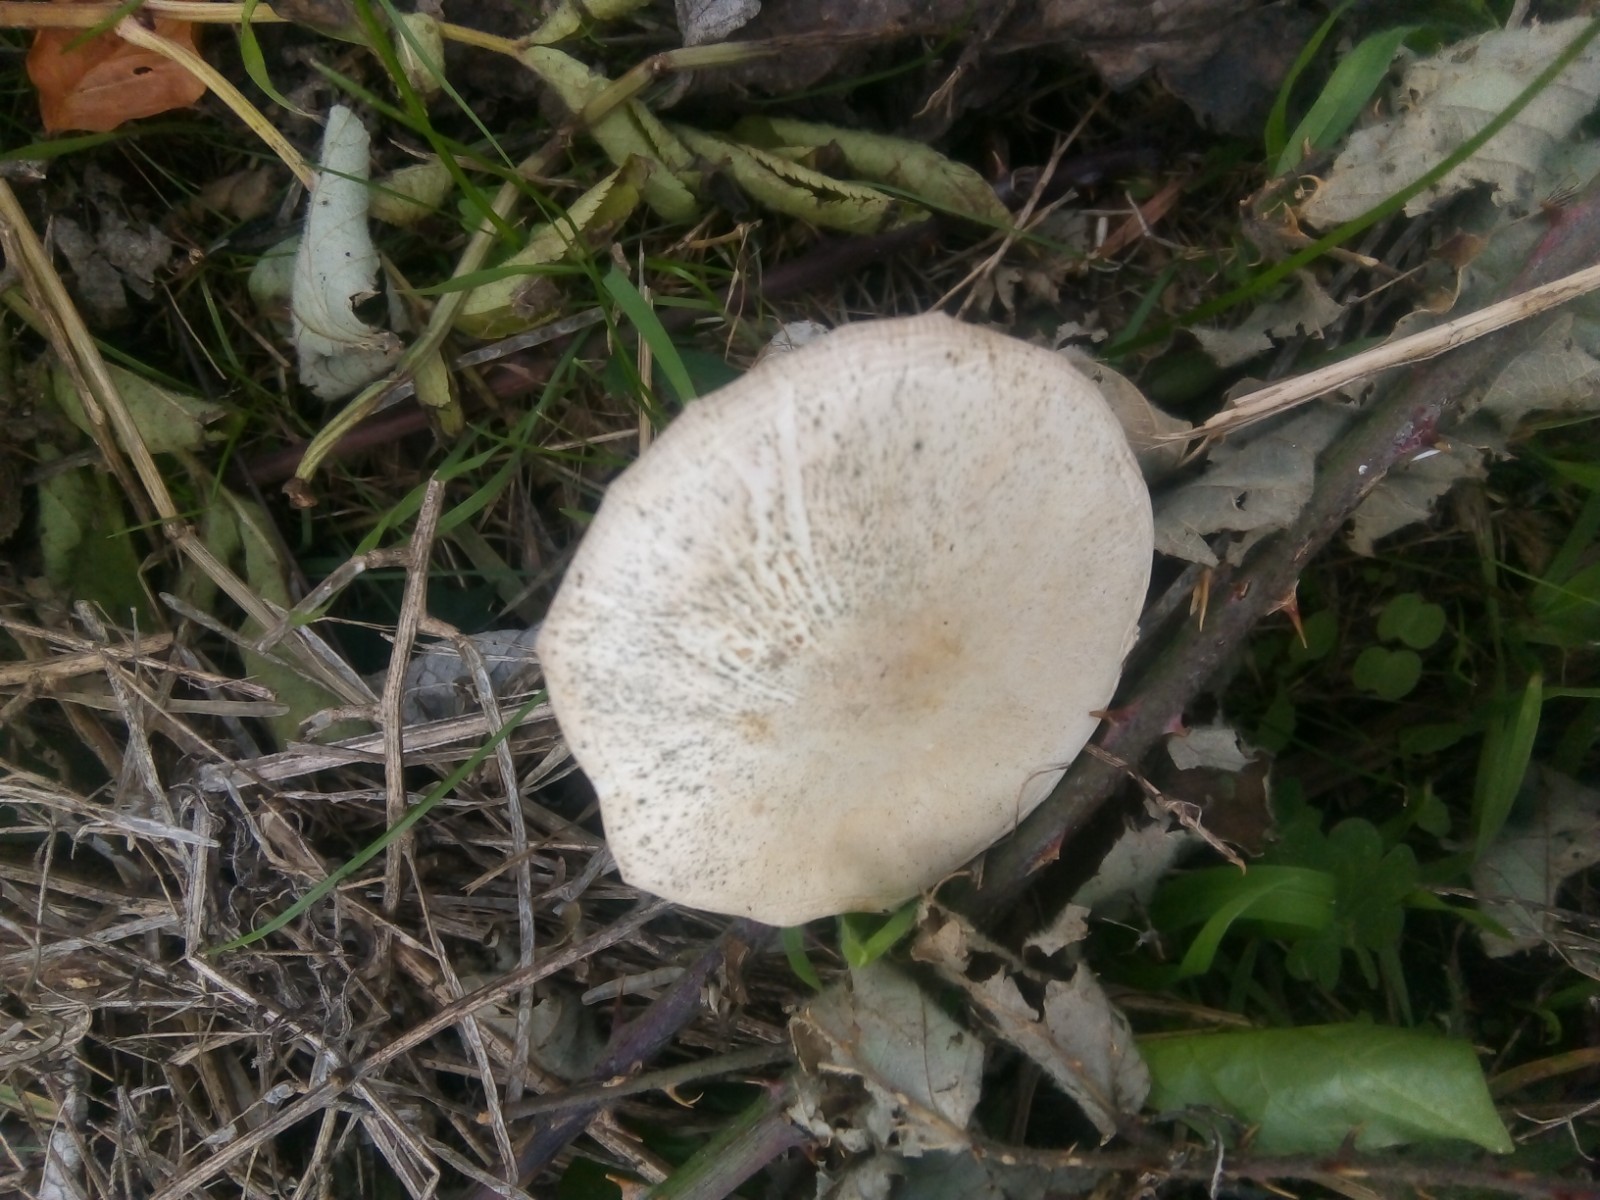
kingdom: Fungi
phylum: Basidiomycota
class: Agaricomycetes
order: Agaricales
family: Agaricaceae
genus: Leucoagaricus
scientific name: Leucoagaricus leucothites
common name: rosabladet silkehat
